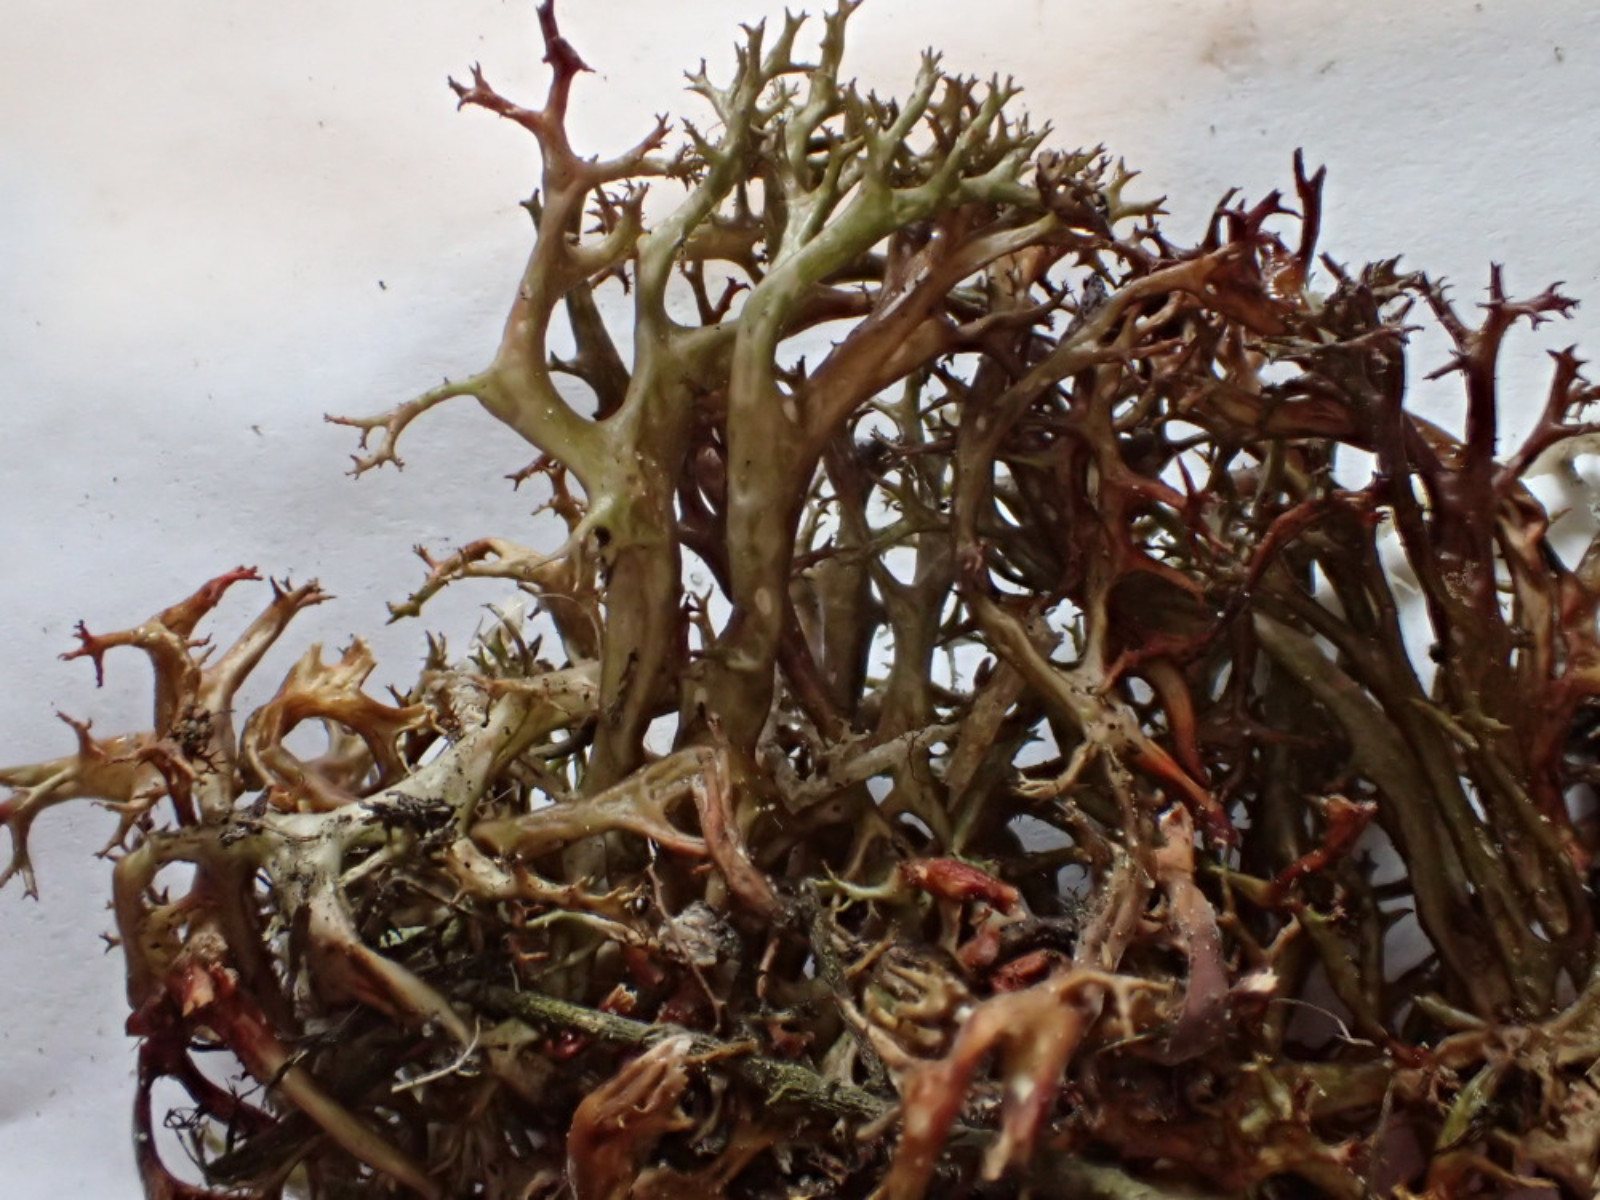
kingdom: Fungi
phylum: Ascomycota
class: Lecanoromycetes
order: Lecanorales
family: Parmeliaceae
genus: Cetraria
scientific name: Cetraria aculeata
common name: grubet tjørnelav
